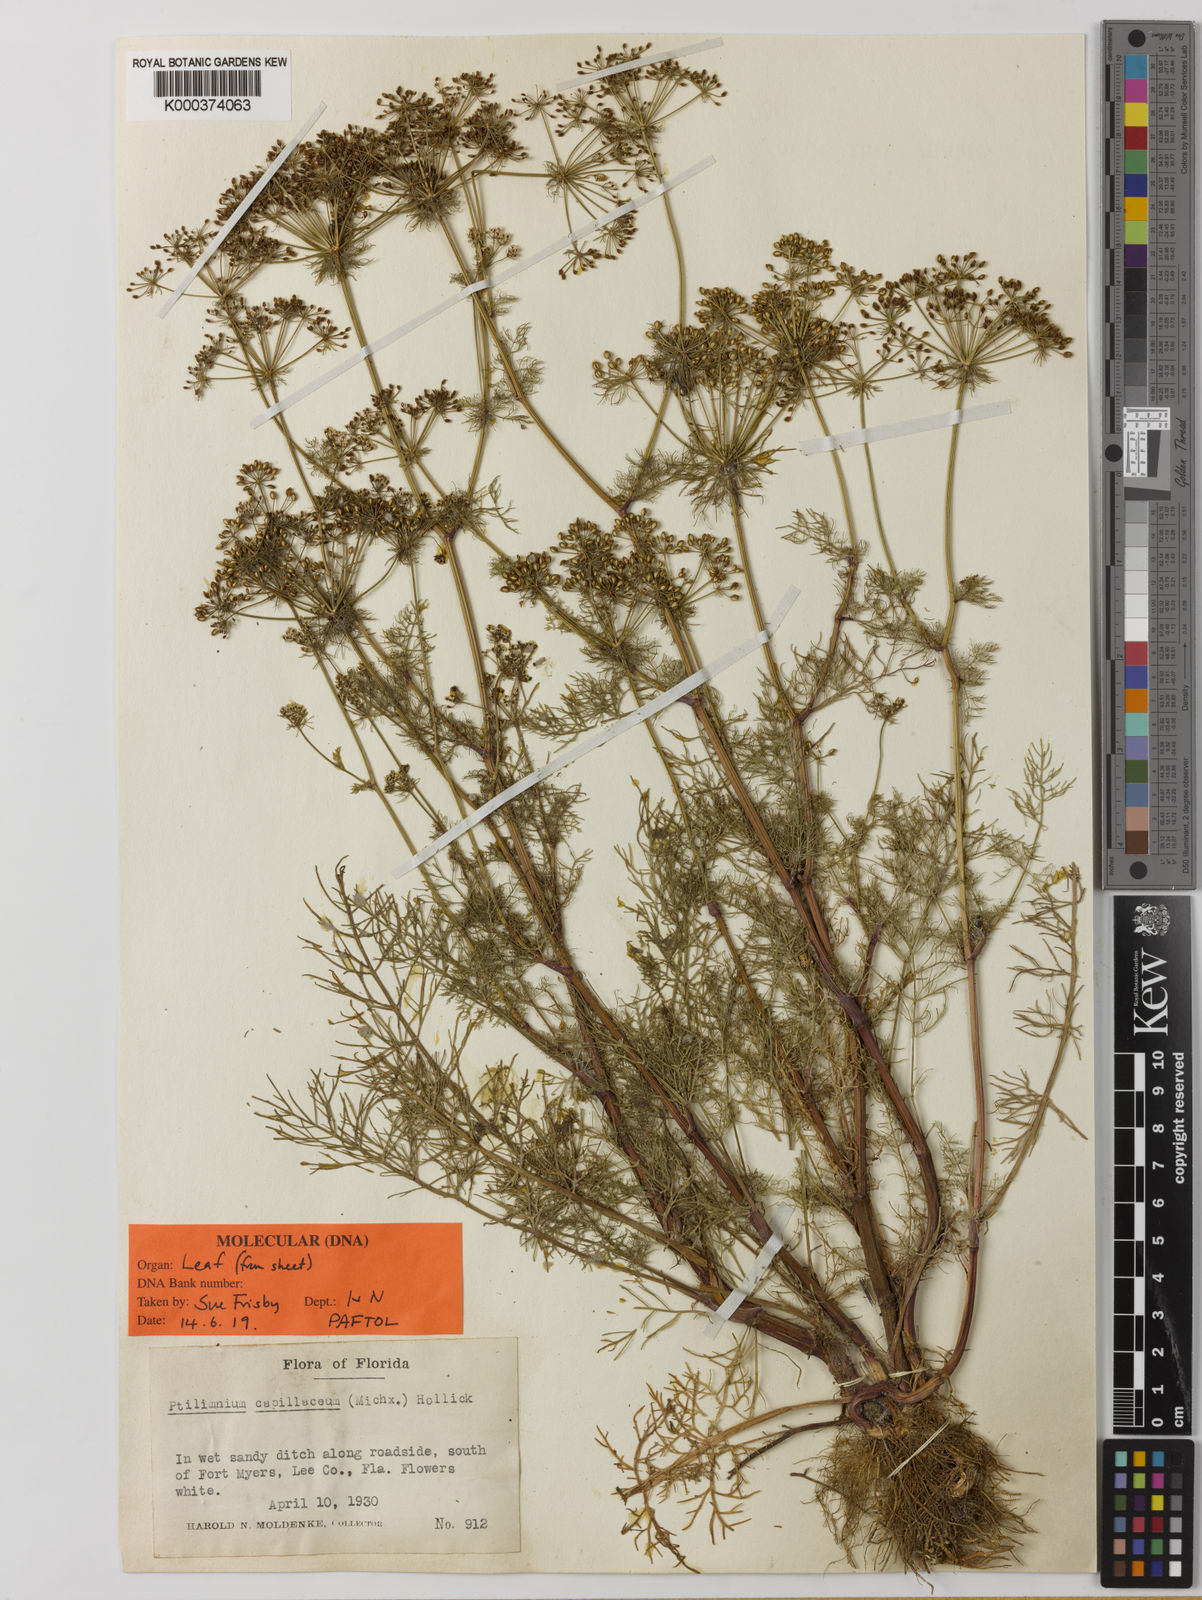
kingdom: Plantae
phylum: Tracheophyta
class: Magnoliopsida
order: Apiales
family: Apiaceae
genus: Ptilimnium
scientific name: Ptilimnium
